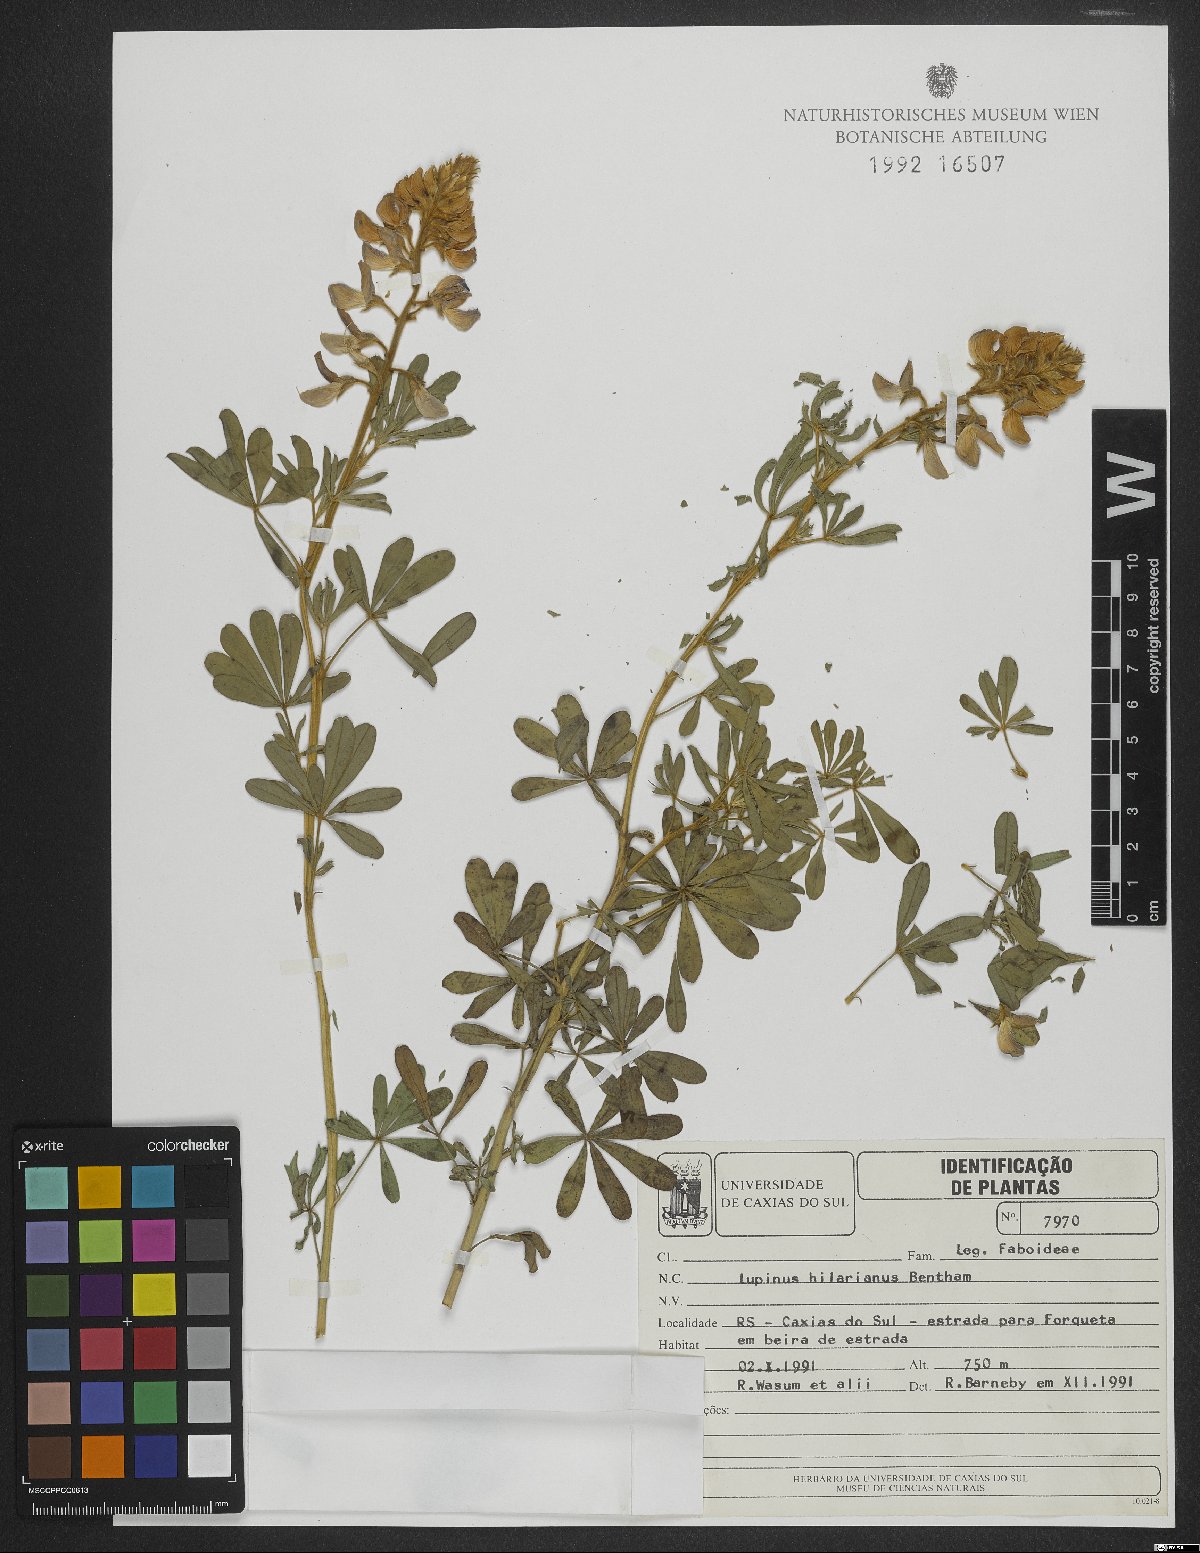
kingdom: Plantae
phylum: Tracheophyta
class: Magnoliopsida
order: Fabales
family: Fabaceae
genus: Lupinus
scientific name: Lupinus heptaphyllus
